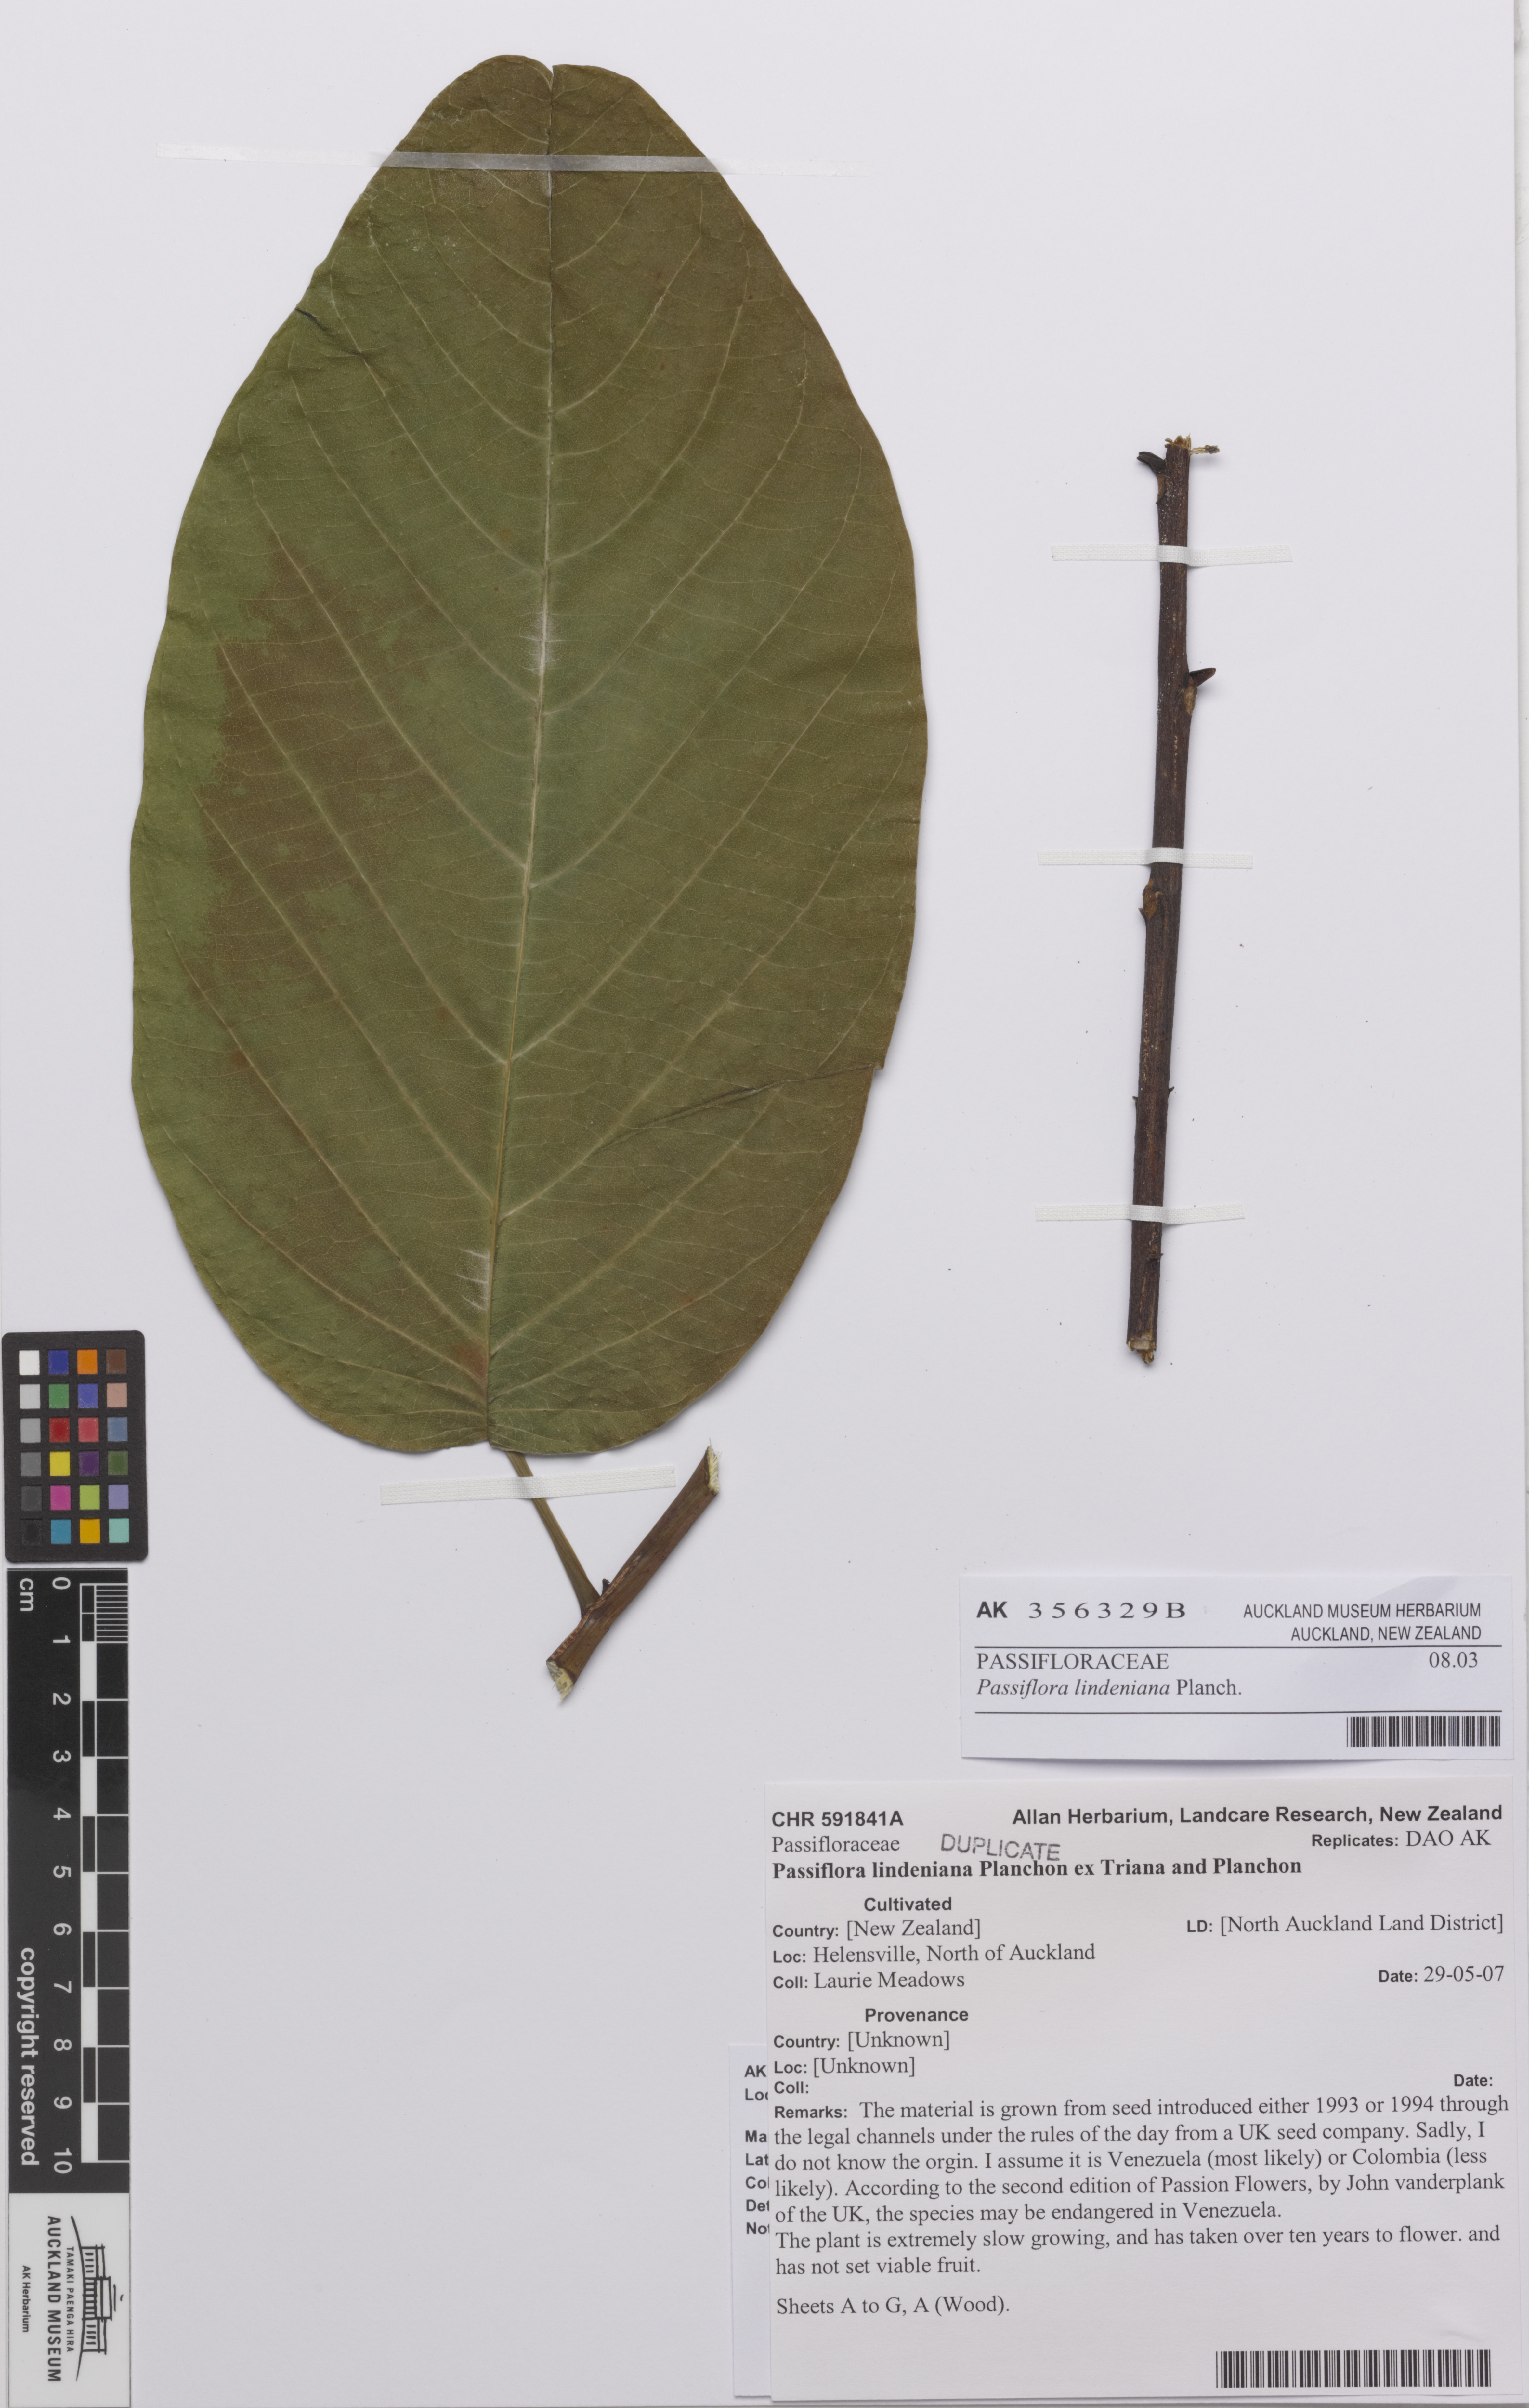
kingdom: Plantae
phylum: Tracheophyta
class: Magnoliopsida
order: Malpighiales
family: Passifloraceae
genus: Passiflora
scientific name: Passiflora lindeniana
